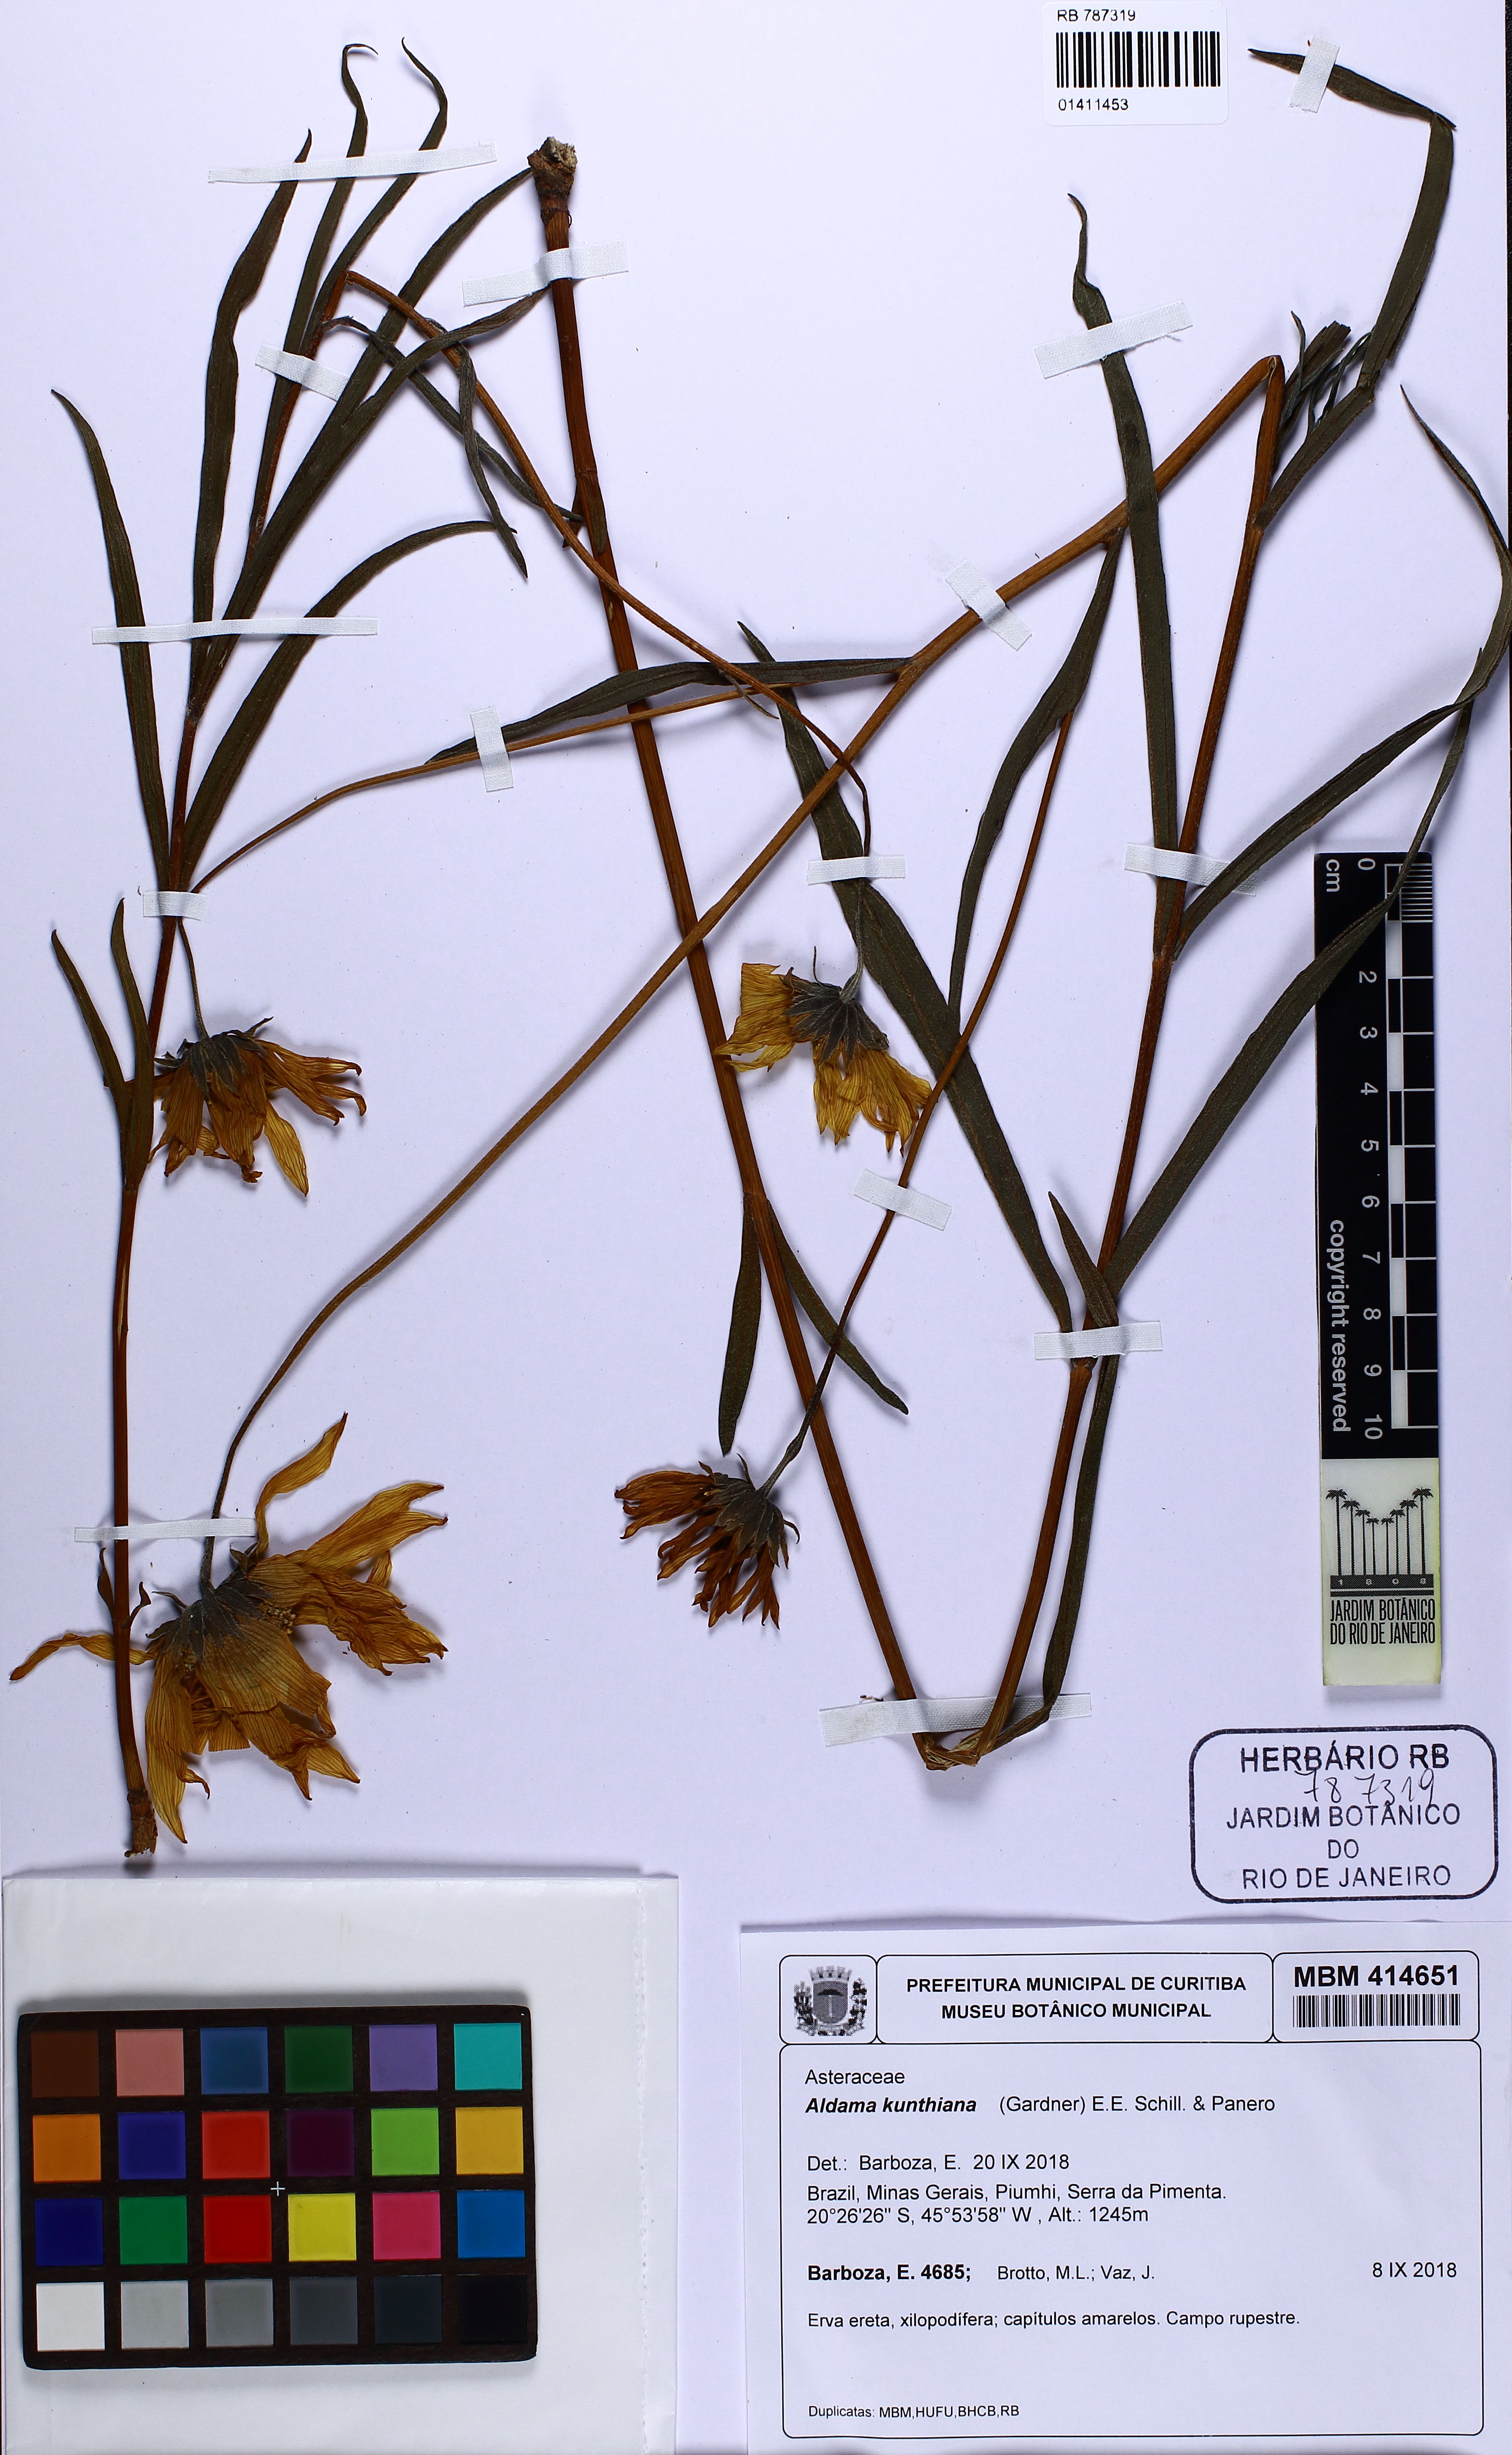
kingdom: Plantae
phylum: Tracheophyta
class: Magnoliopsida
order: Asterales
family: Asteraceae
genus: Aldama
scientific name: Aldama kunthiana
